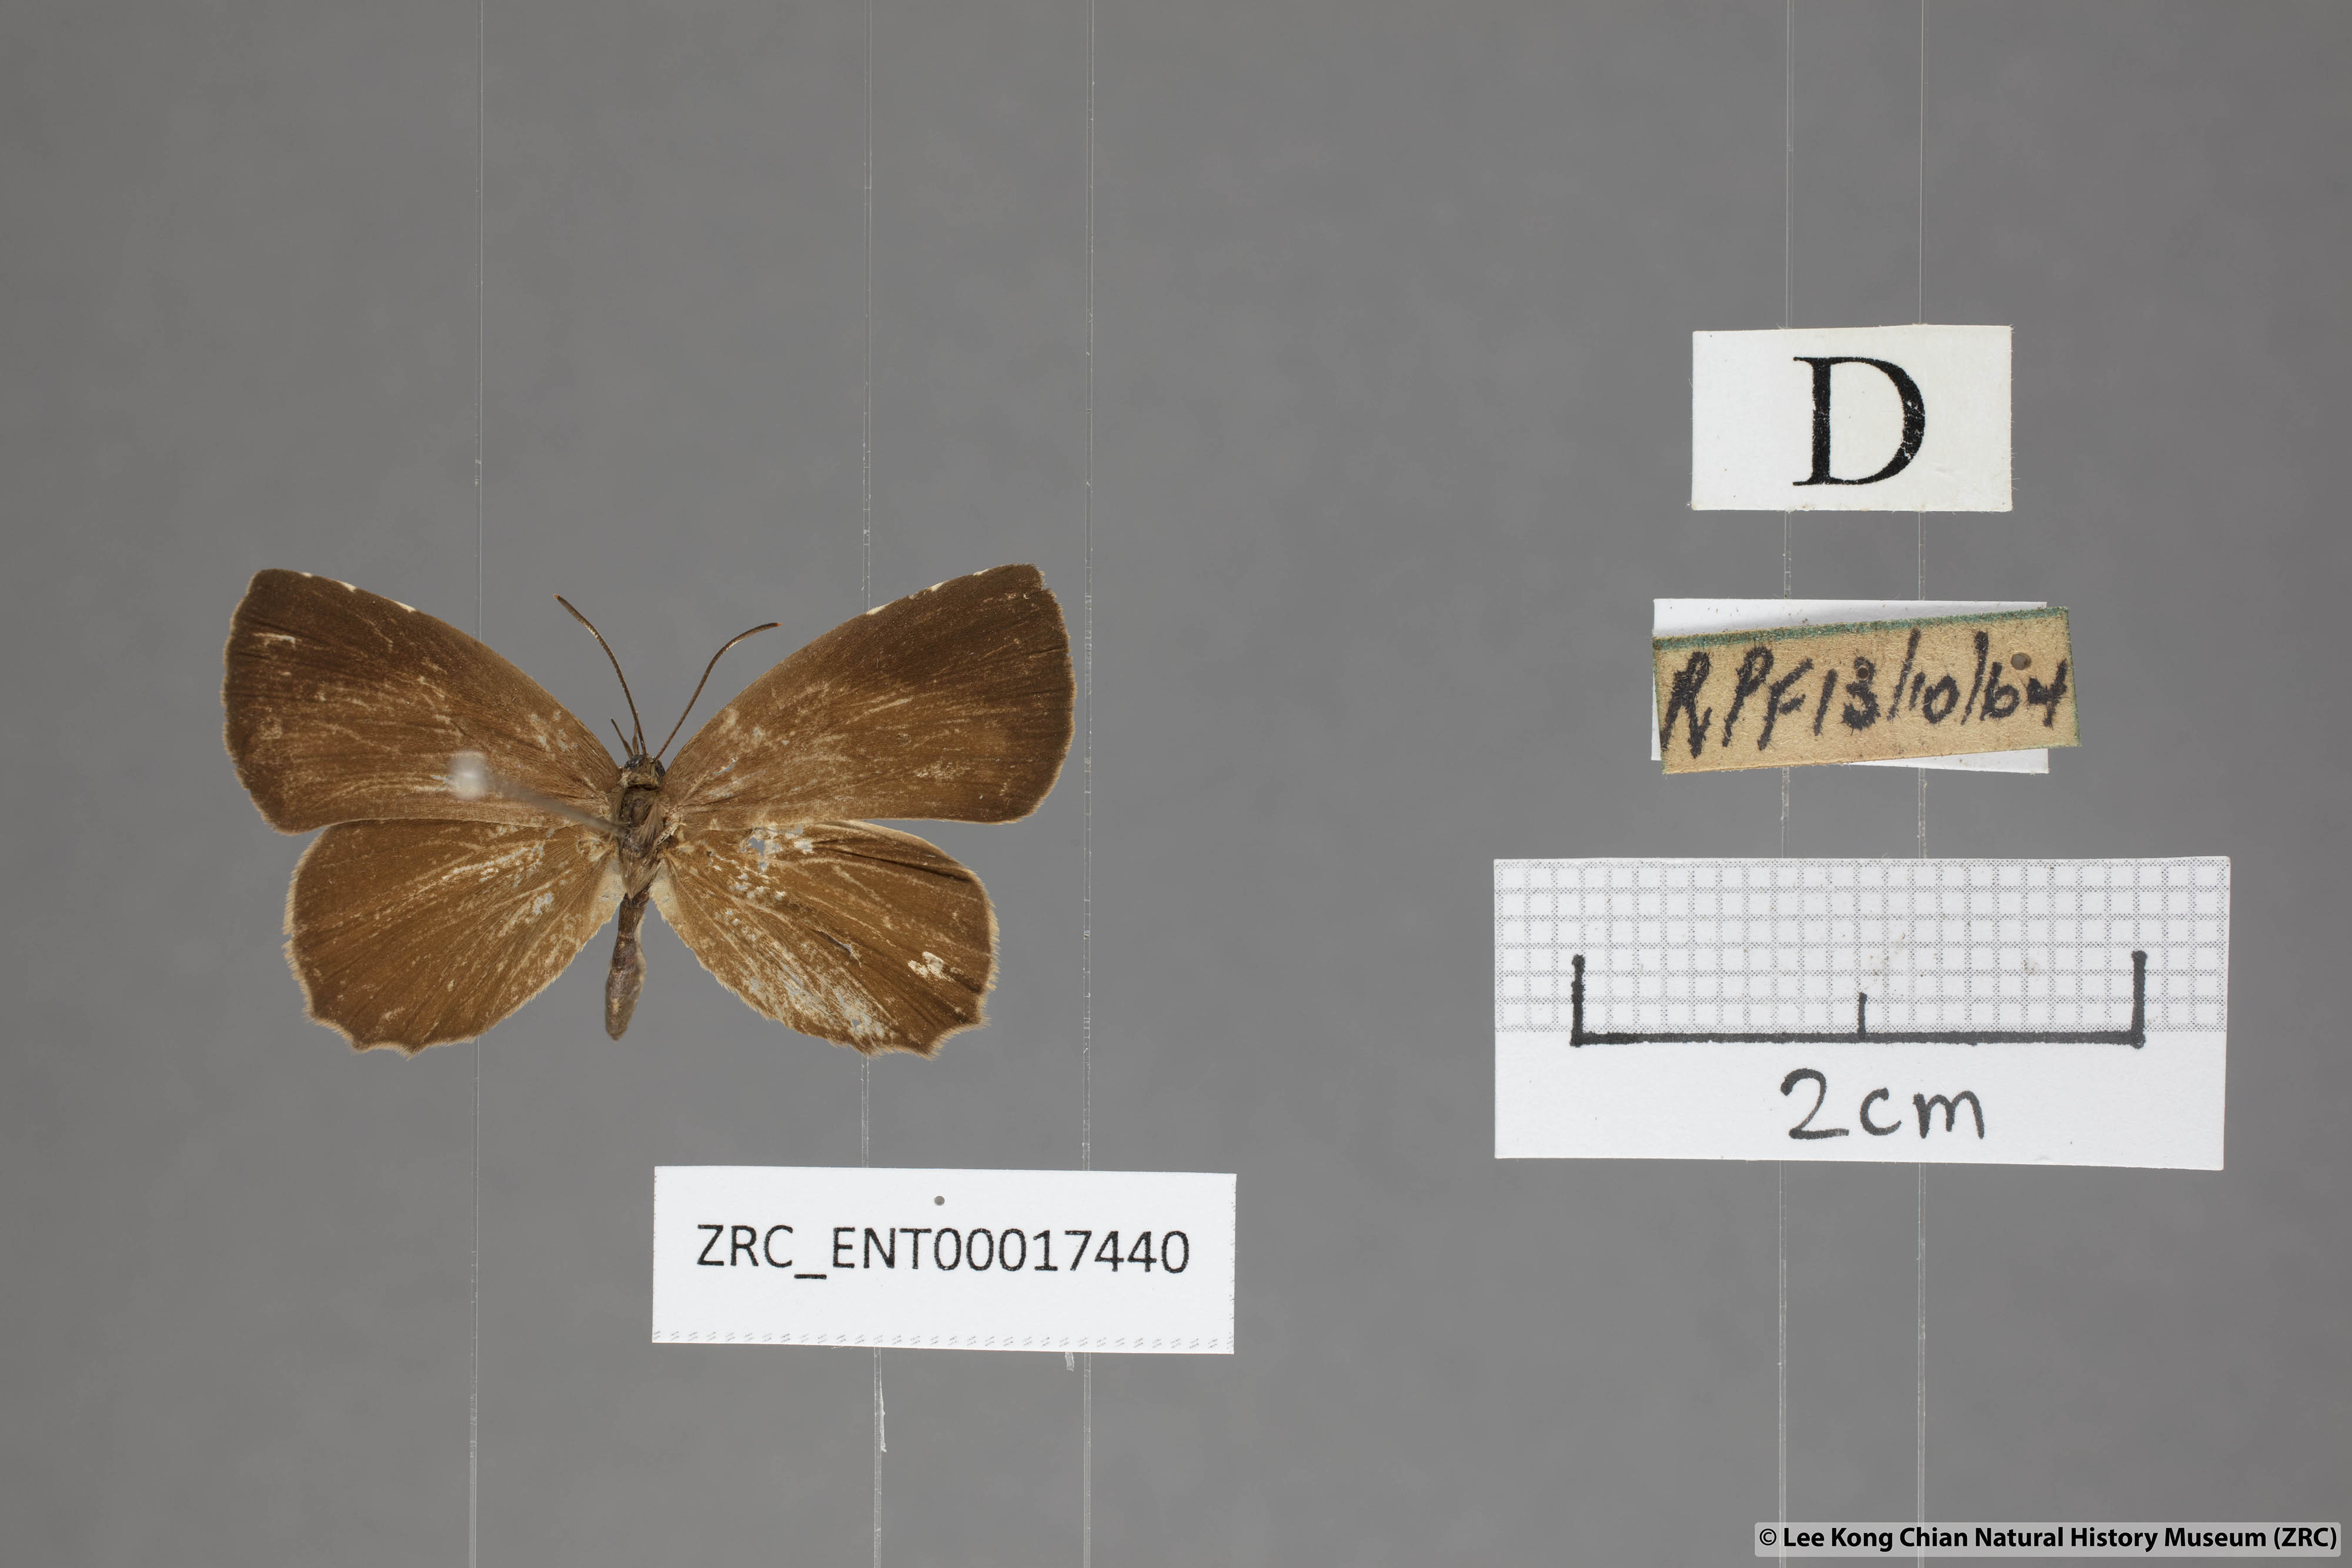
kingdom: Animalia
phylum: Arthropoda
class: Insecta
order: Lepidoptera
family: Lycaenidae
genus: Miletus
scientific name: Miletus gaesa
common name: Brown brownie
